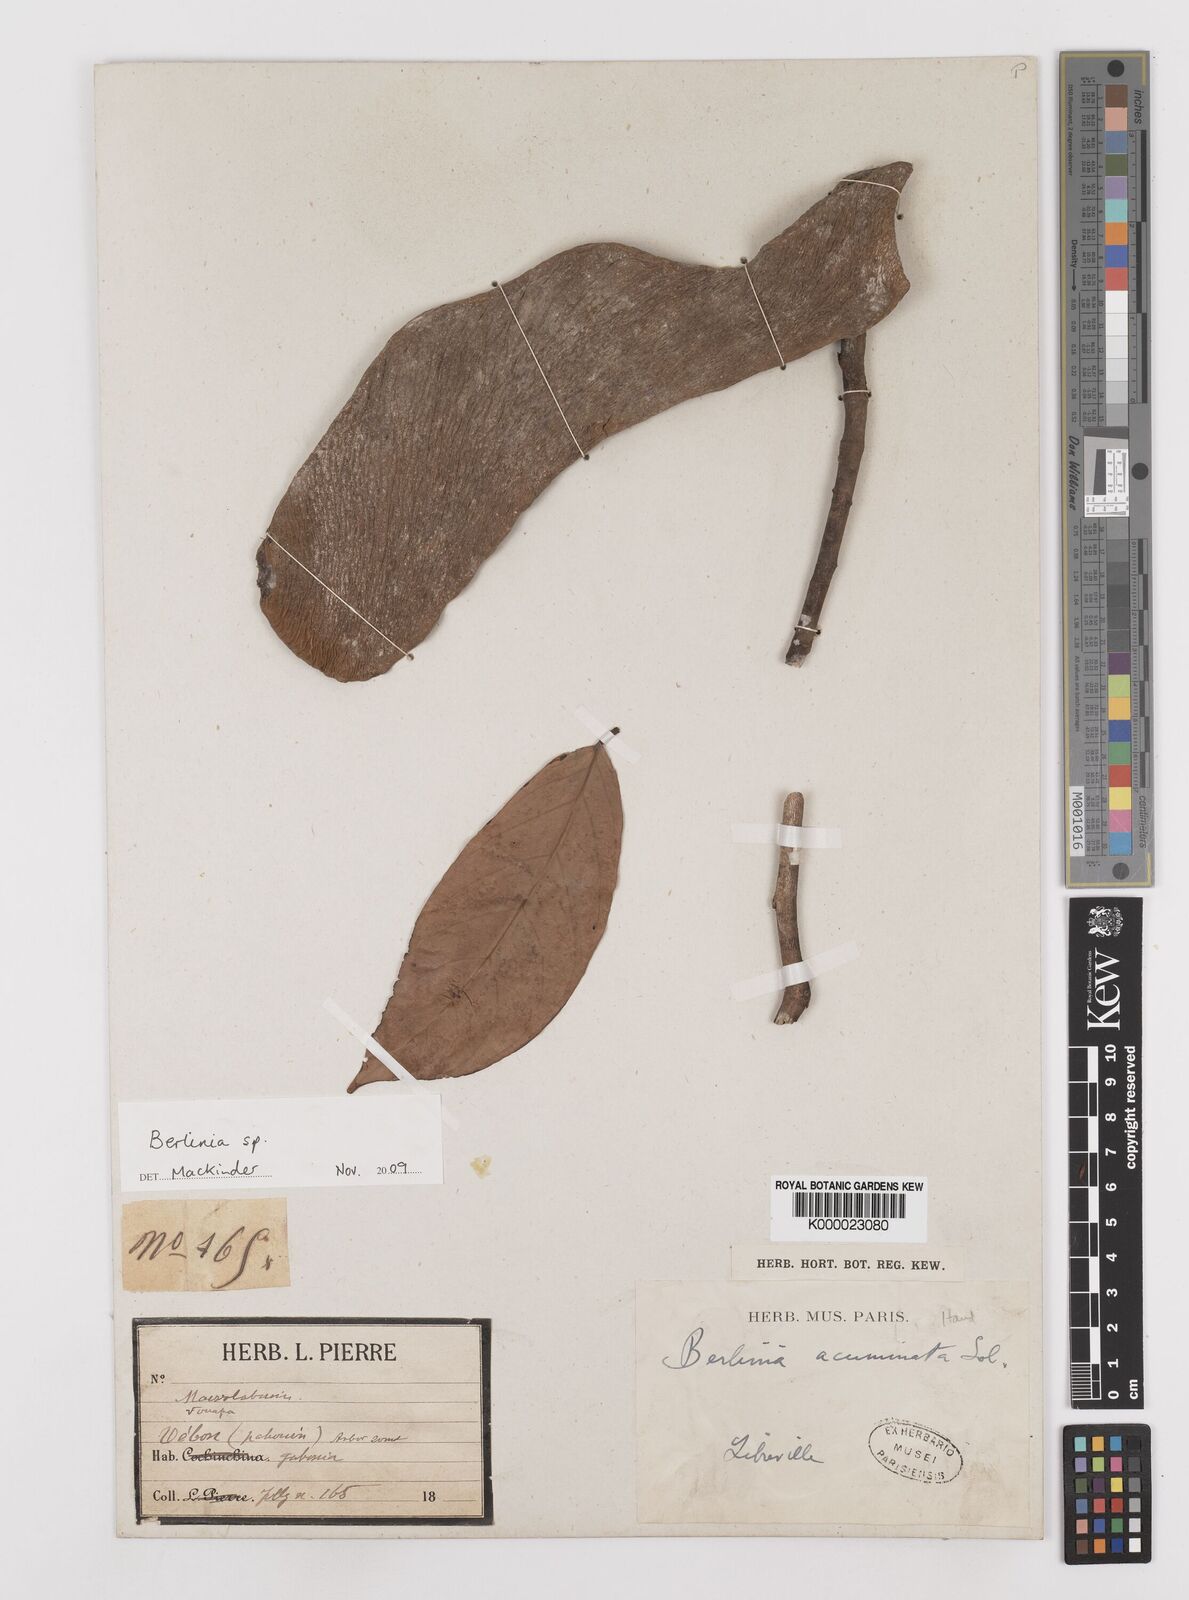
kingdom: Plantae
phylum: Tracheophyta
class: Magnoliopsida
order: Fabales
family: Fabaceae
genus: Berlinia
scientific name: Berlinia
